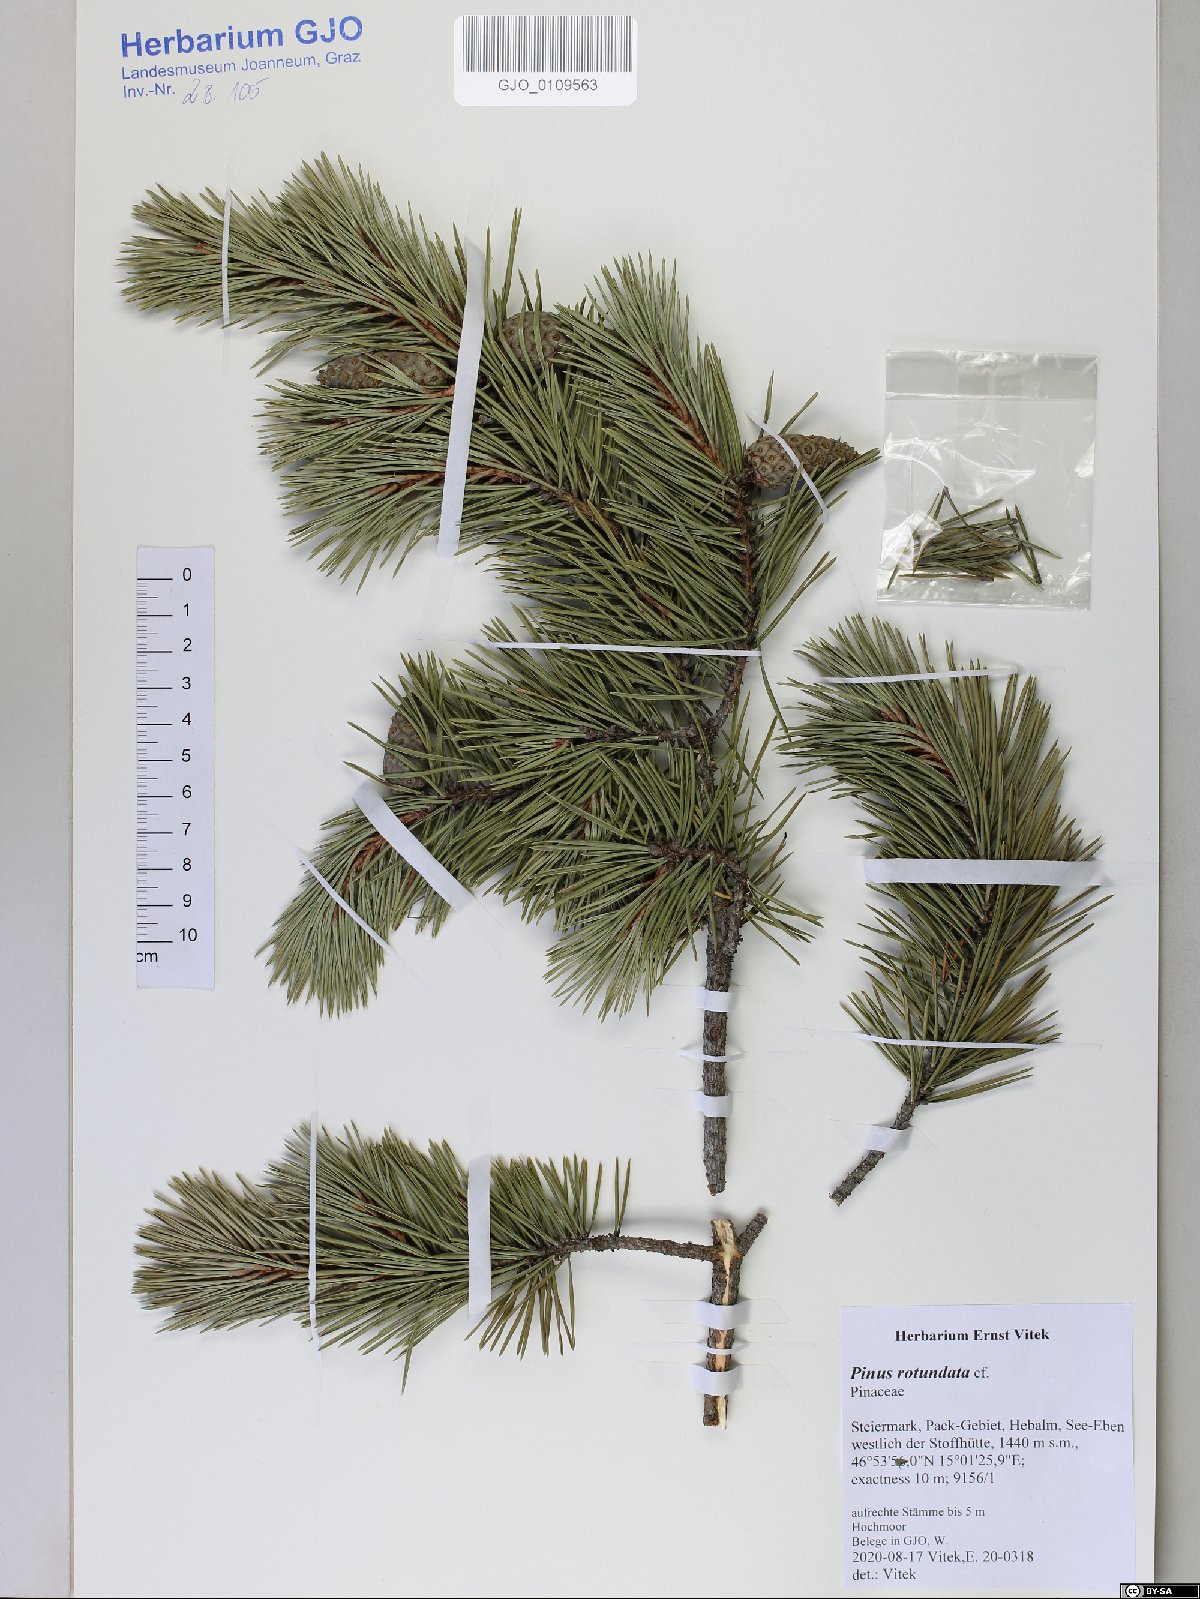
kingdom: Plantae
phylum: Tracheophyta
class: Pinopsida
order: Pinales
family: Pinaceae
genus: Pinus
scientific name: Pinus mugo
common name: Mugo pine
